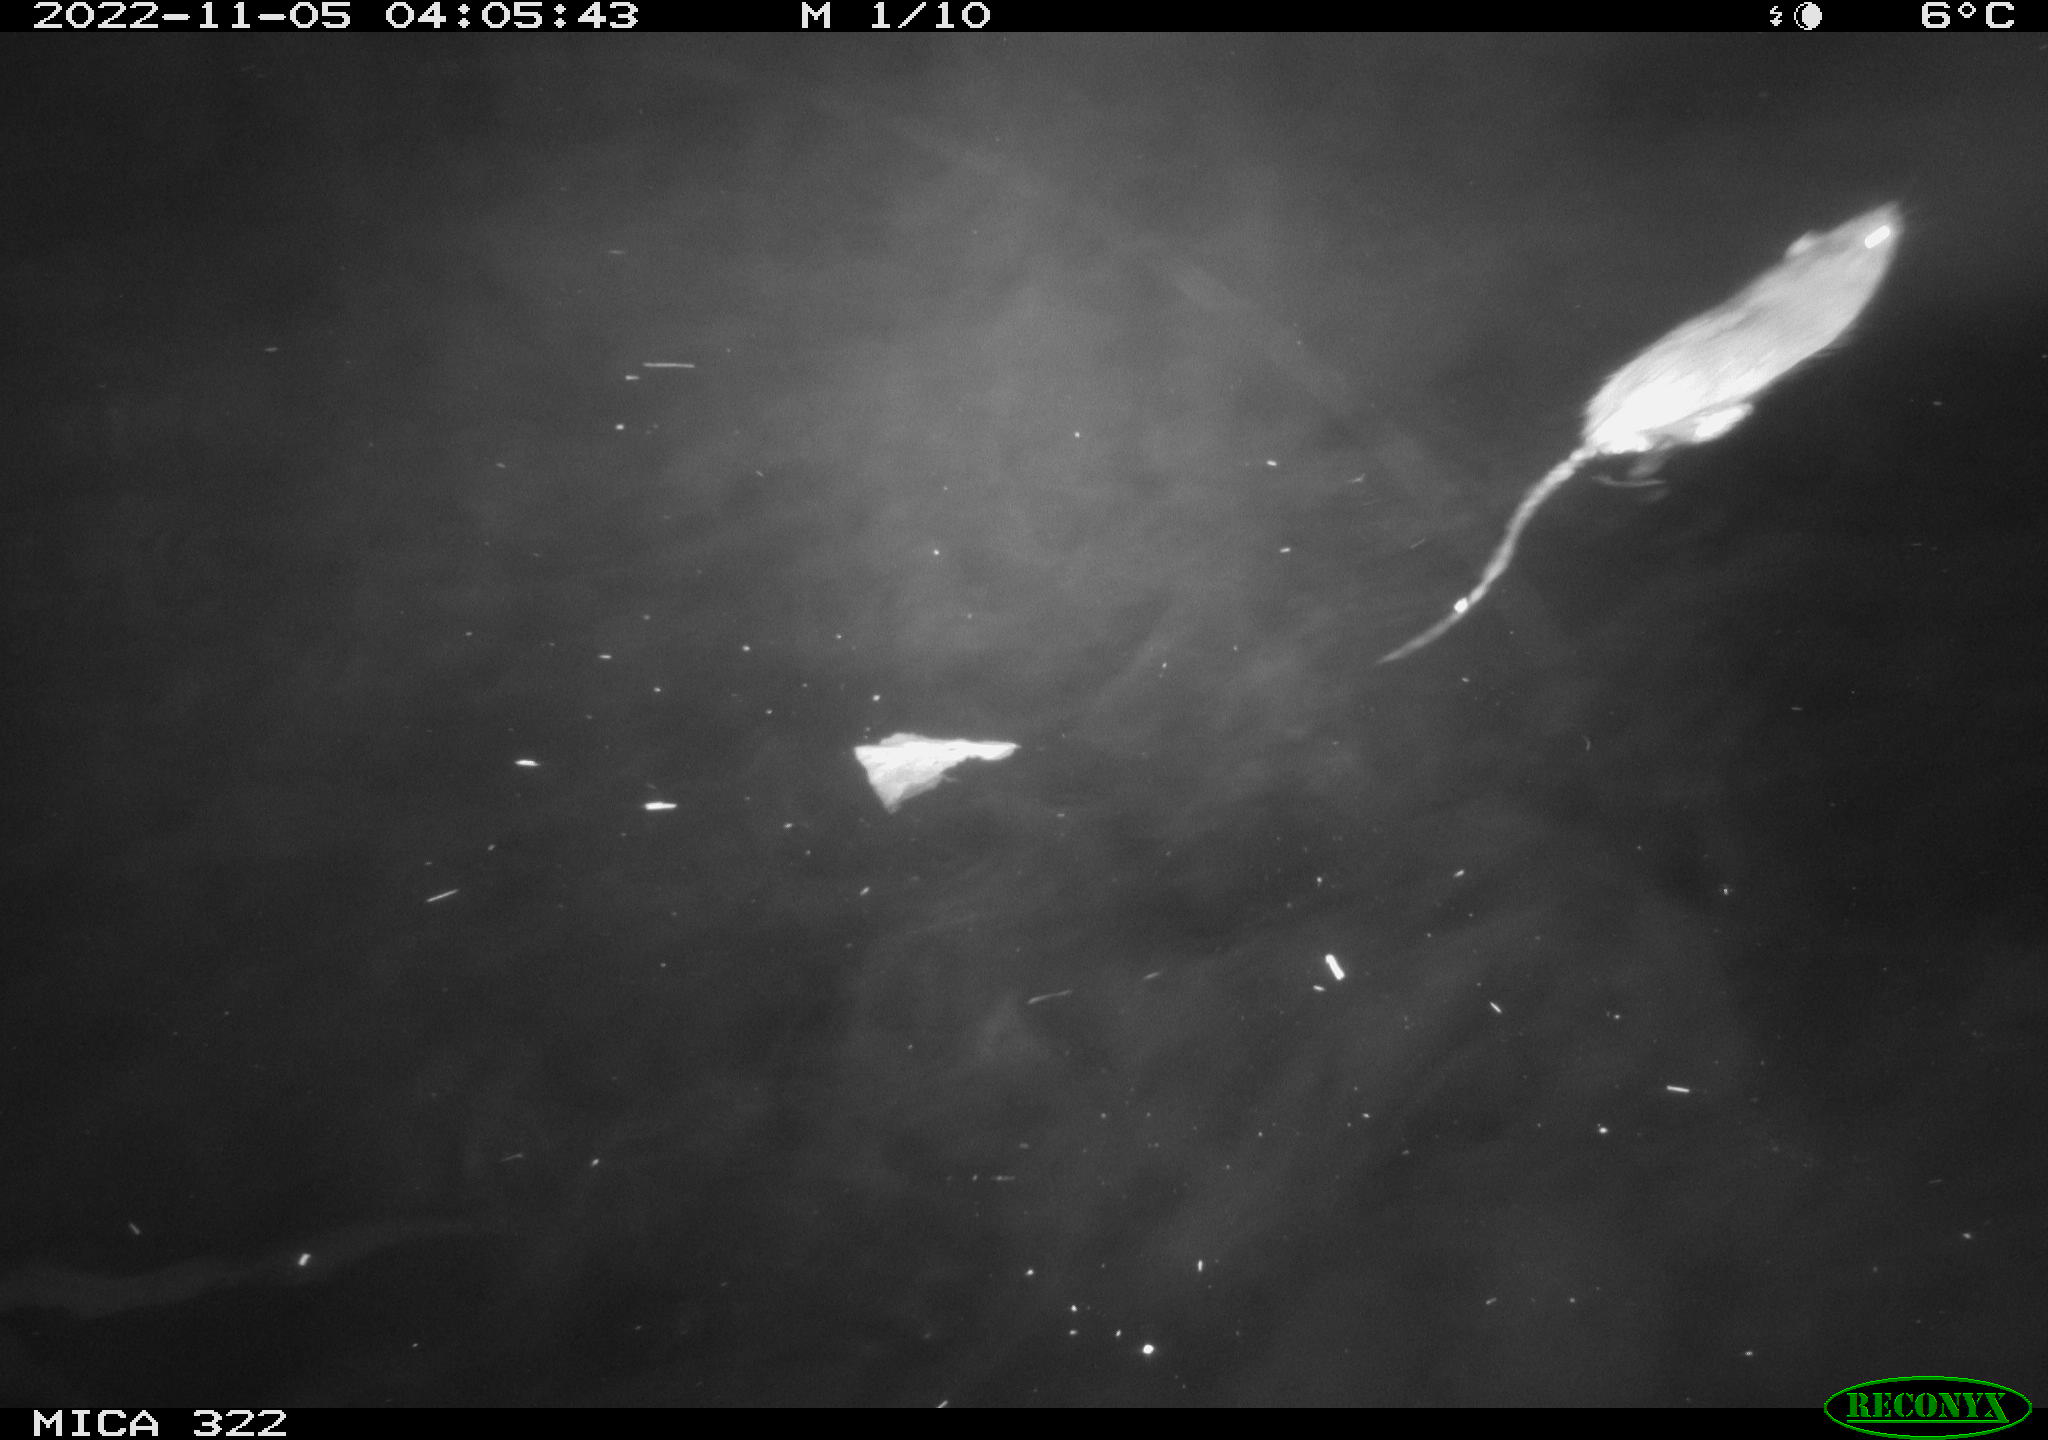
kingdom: Animalia
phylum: Chordata
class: Mammalia
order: Rodentia
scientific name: Rodentia
